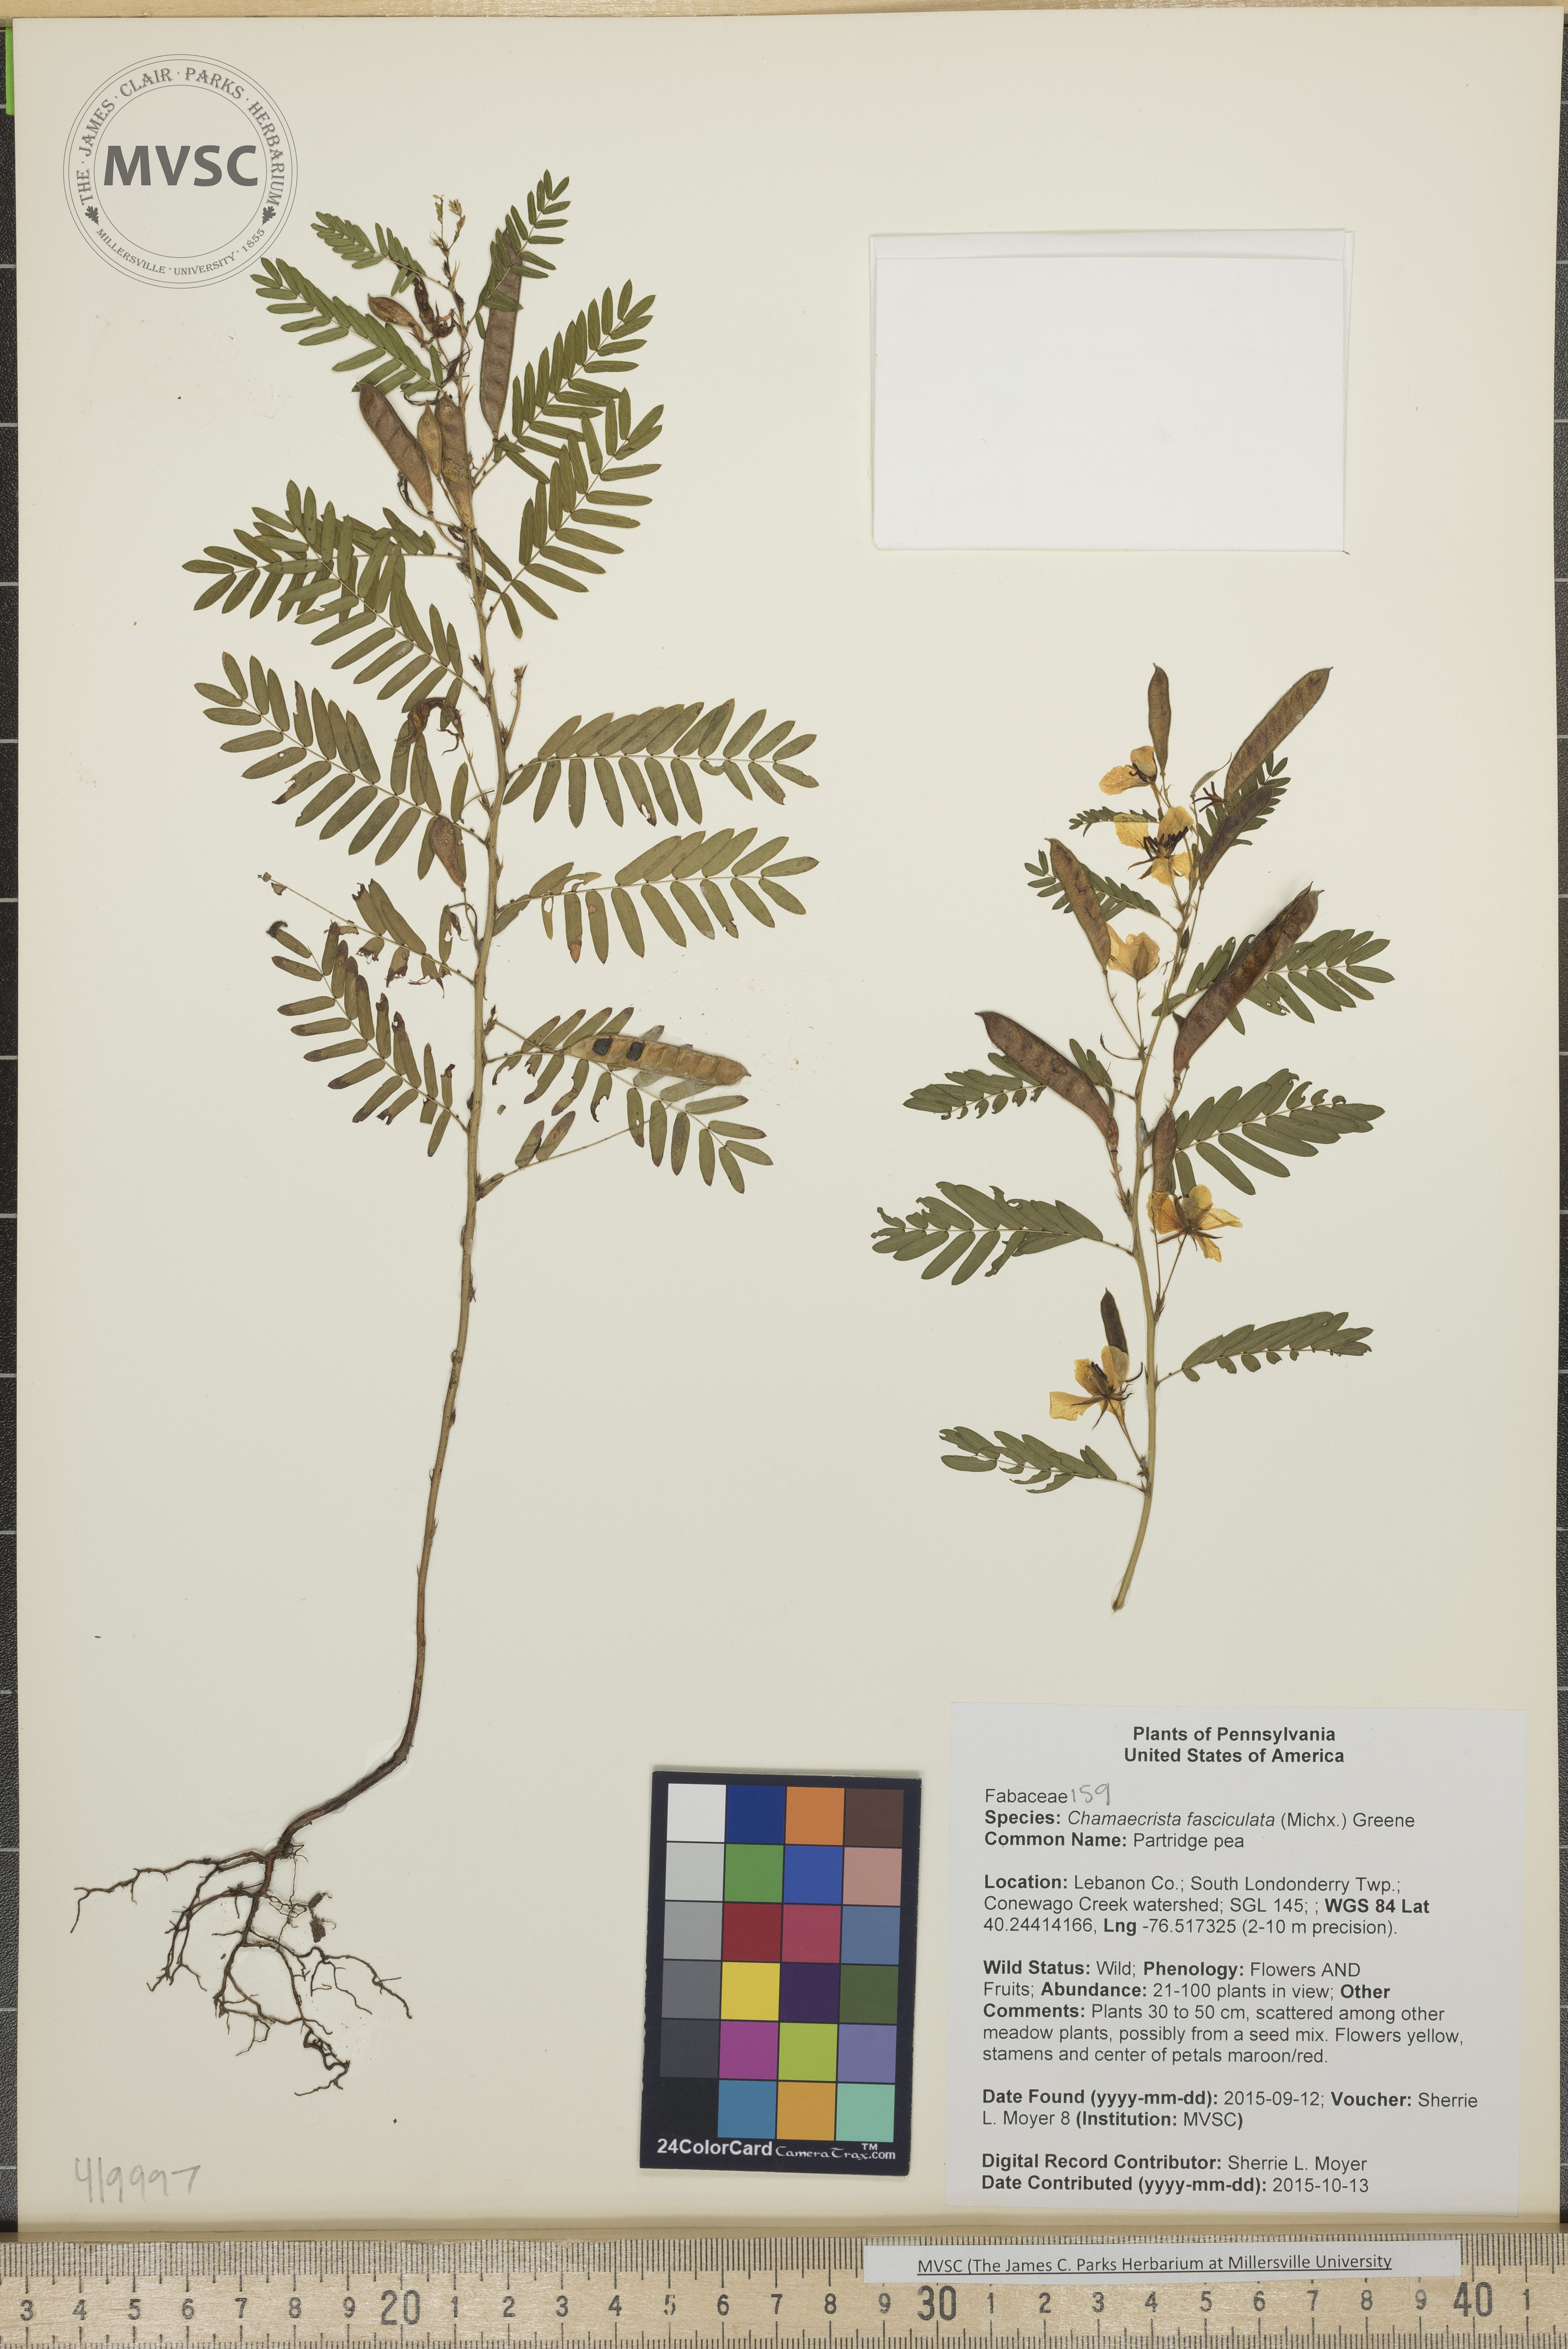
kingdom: Plantae
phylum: Tracheophyta
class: Magnoliopsida
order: Fabales
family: Fabaceae
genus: Chamaecrista
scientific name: Chamaecrista fasciculata
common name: Partridge pea
